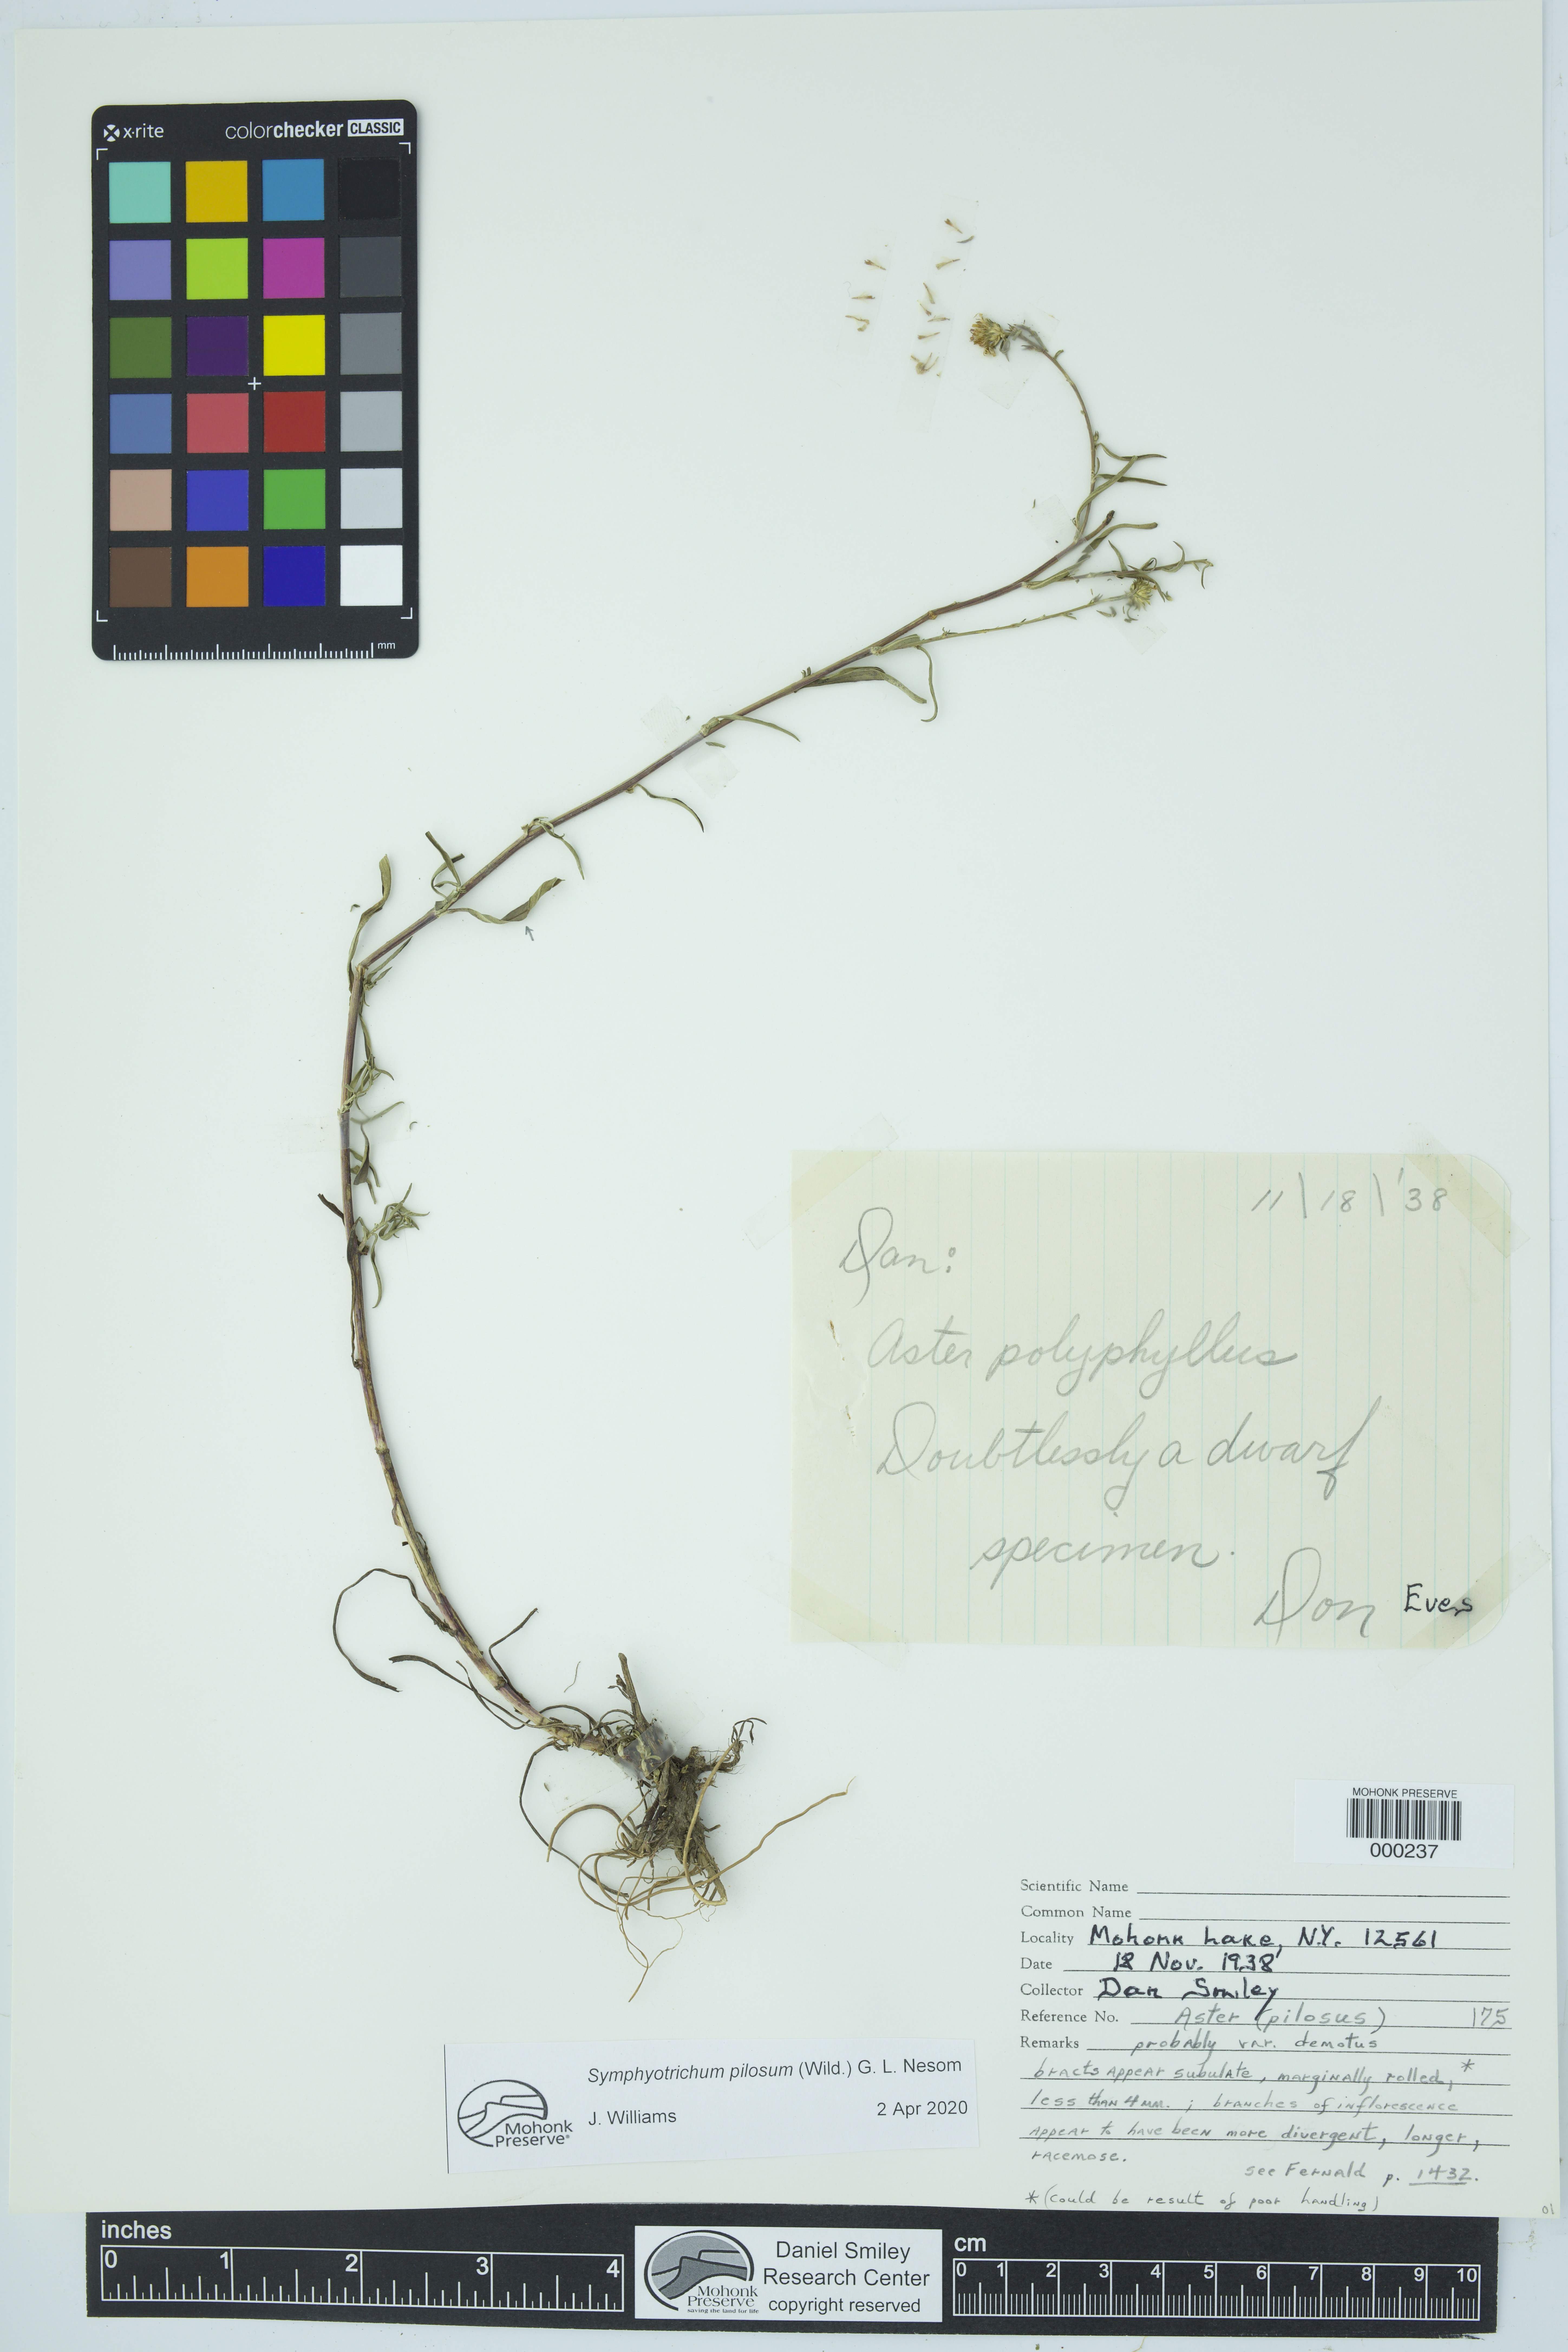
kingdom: Plantae
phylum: Tracheophyta
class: Magnoliopsida
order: Asterales
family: Asteraceae
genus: Symphyotrichum
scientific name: Symphyotrichum pilosum
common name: Awl aster
